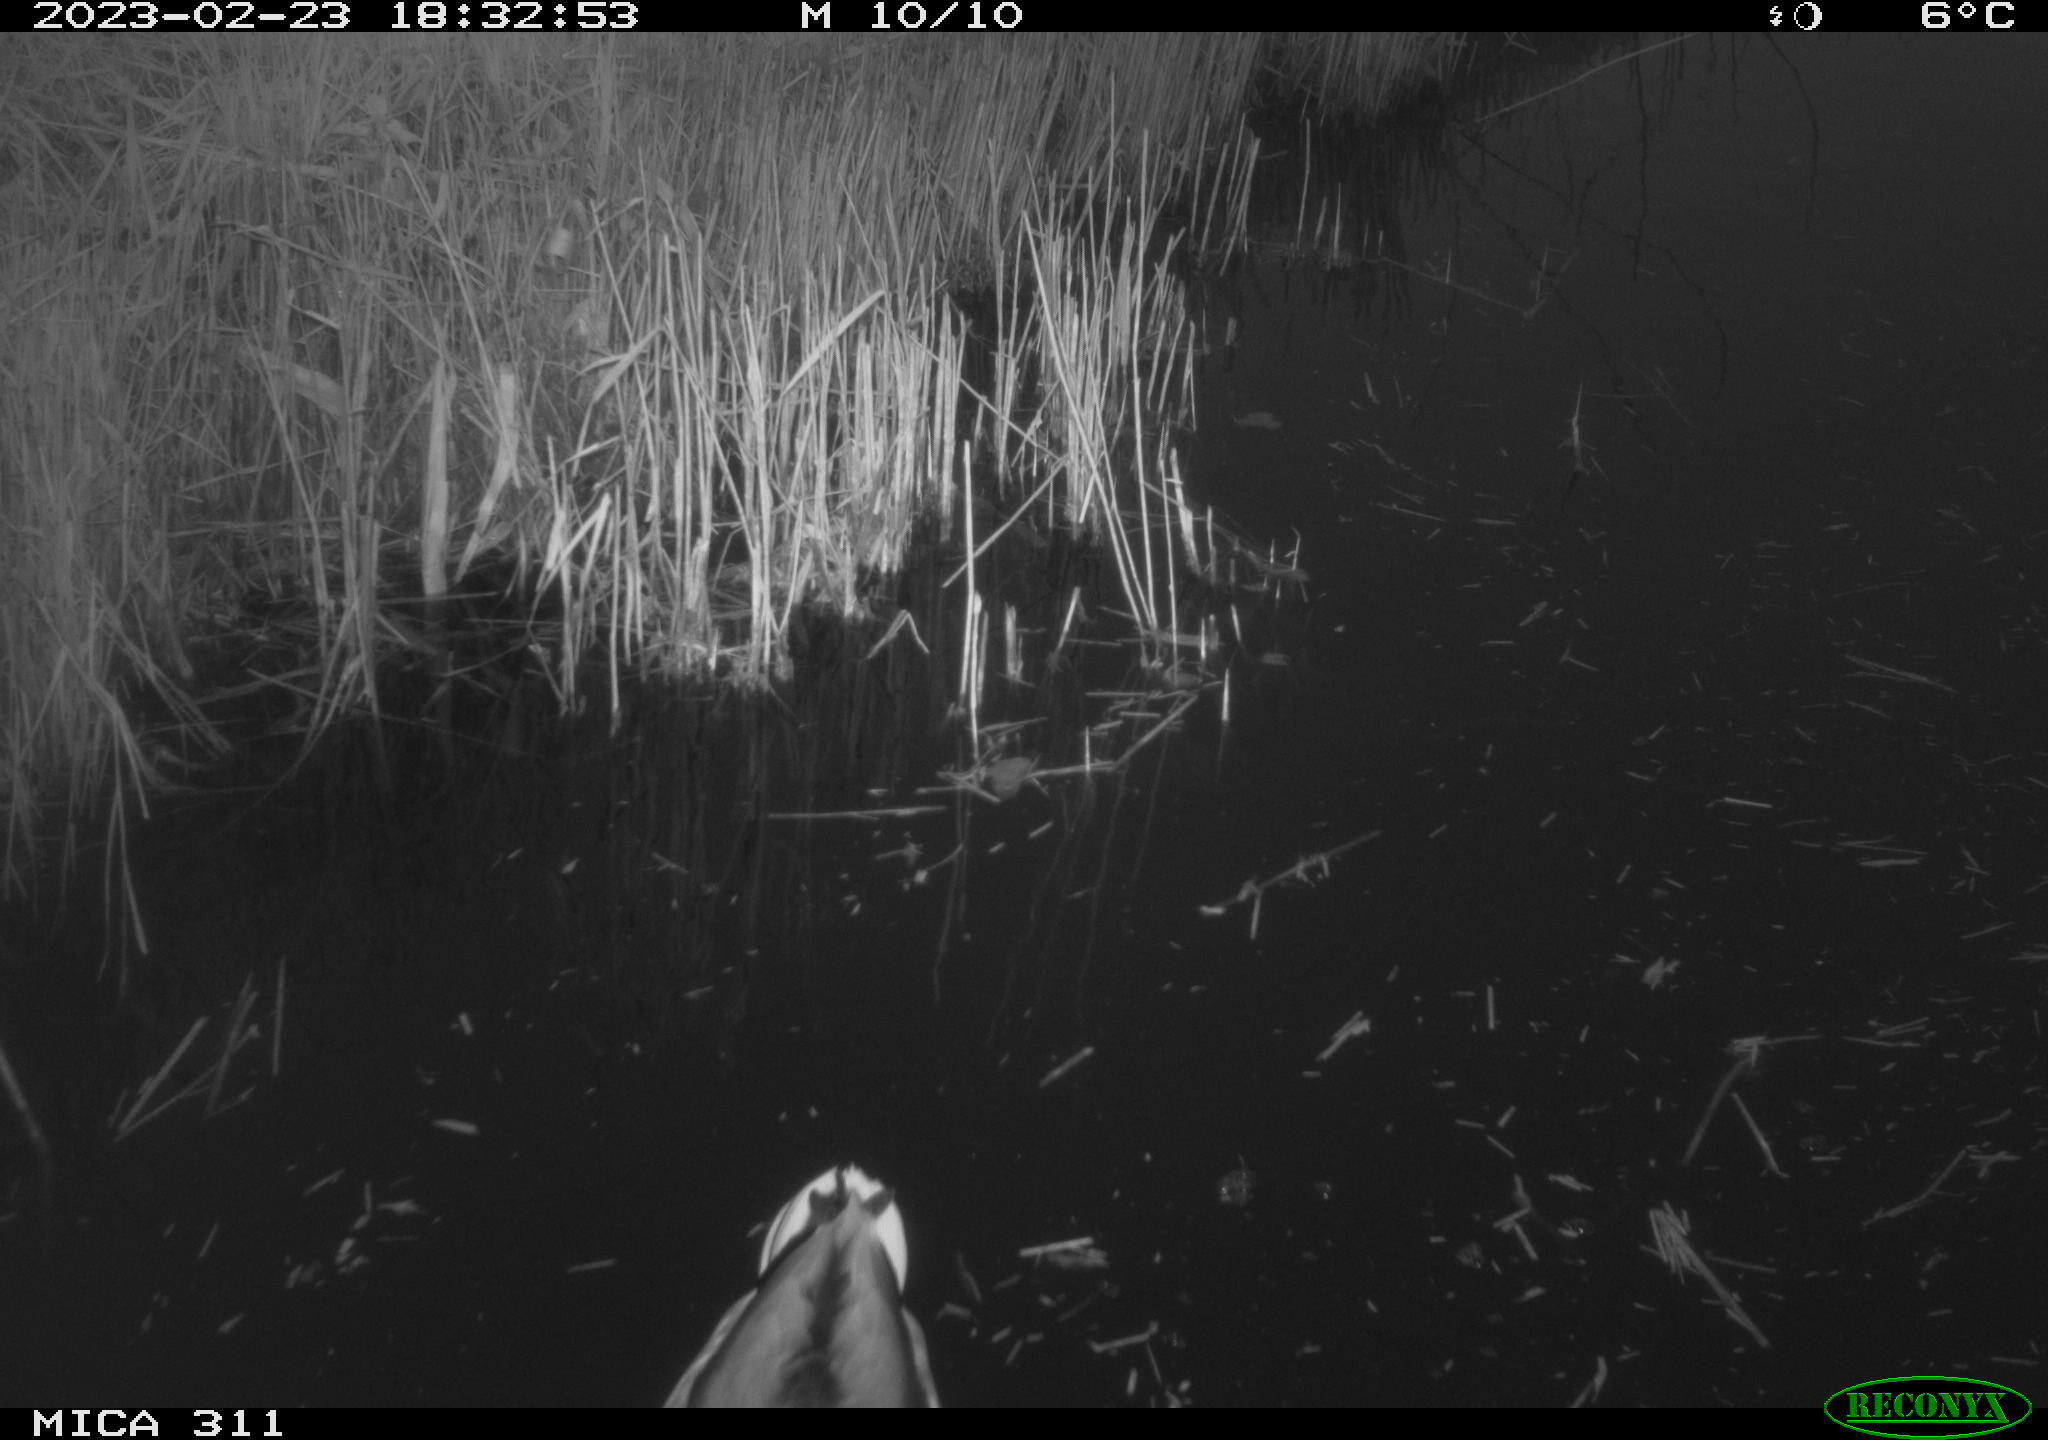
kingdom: Animalia
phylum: Chordata
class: Aves
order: Anseriformes
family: Anatidae
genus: Anas
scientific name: Anas
